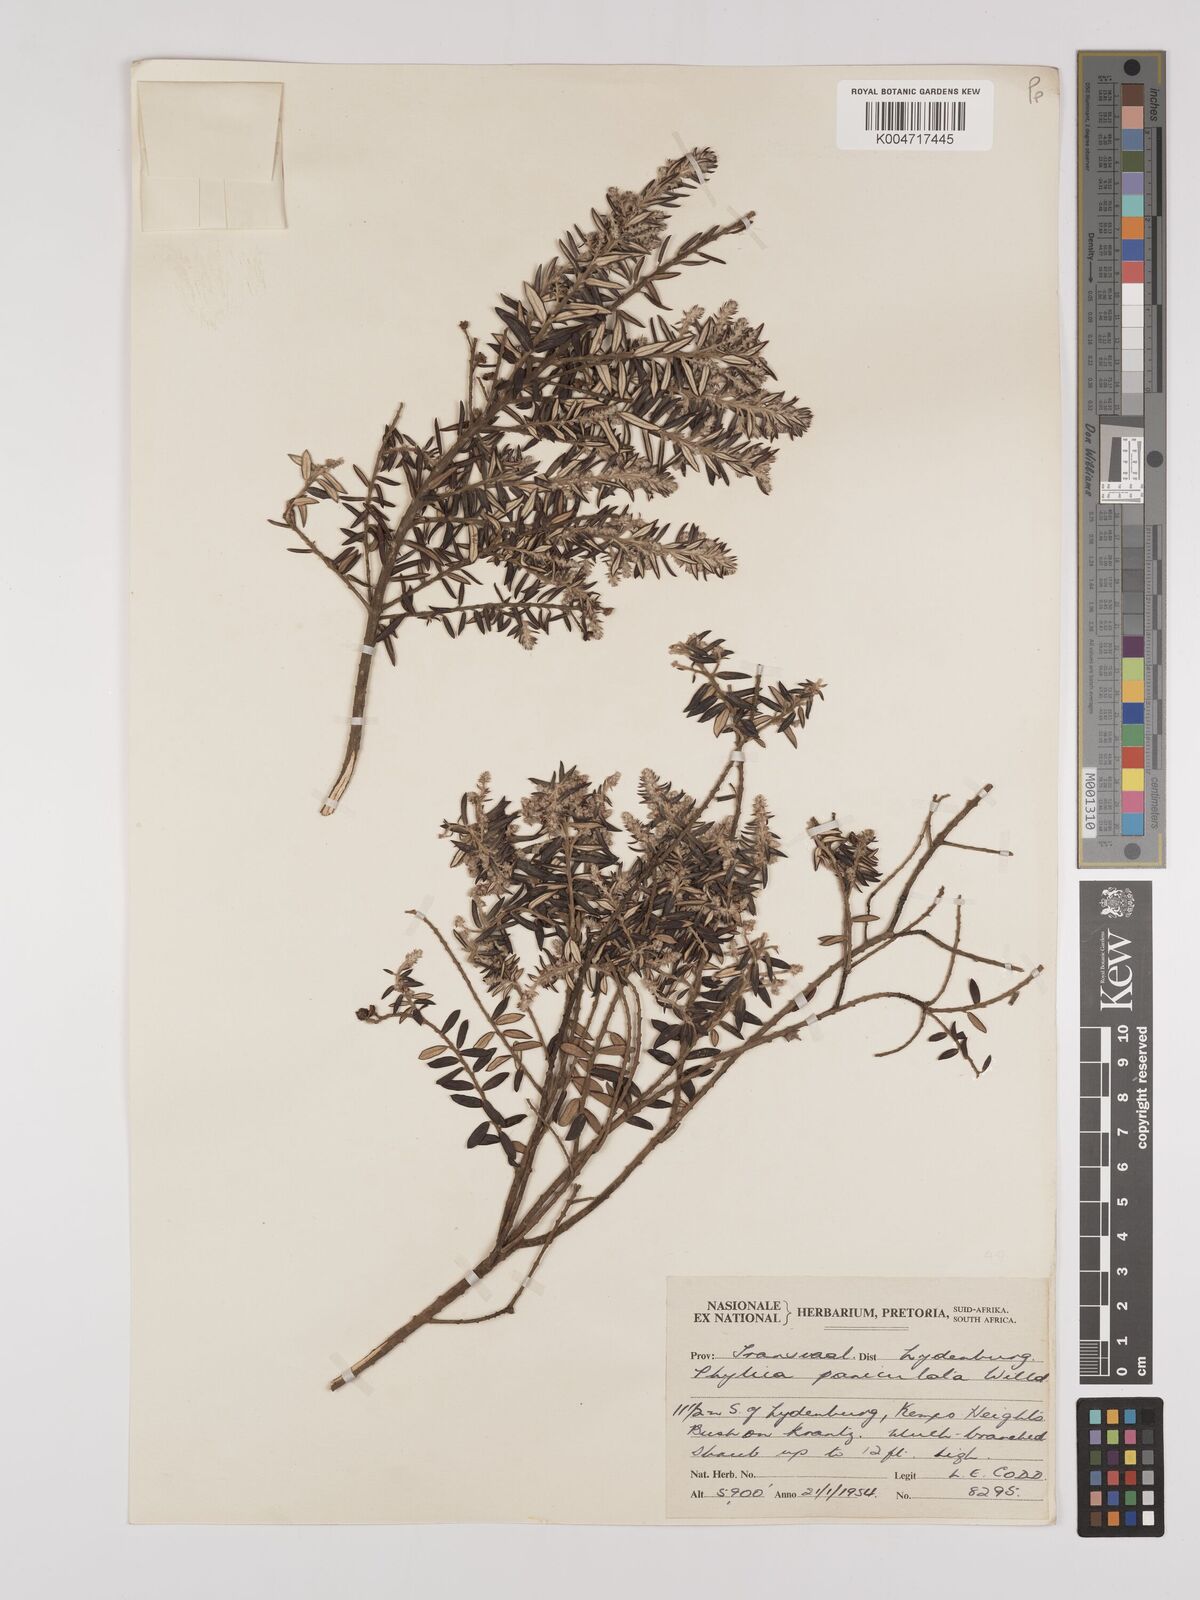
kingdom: Plantae
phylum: Tracheophyta
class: Magnoliopsida
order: Rosales
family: Rhamnaceae
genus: Phylica
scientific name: Phylica paniculata
